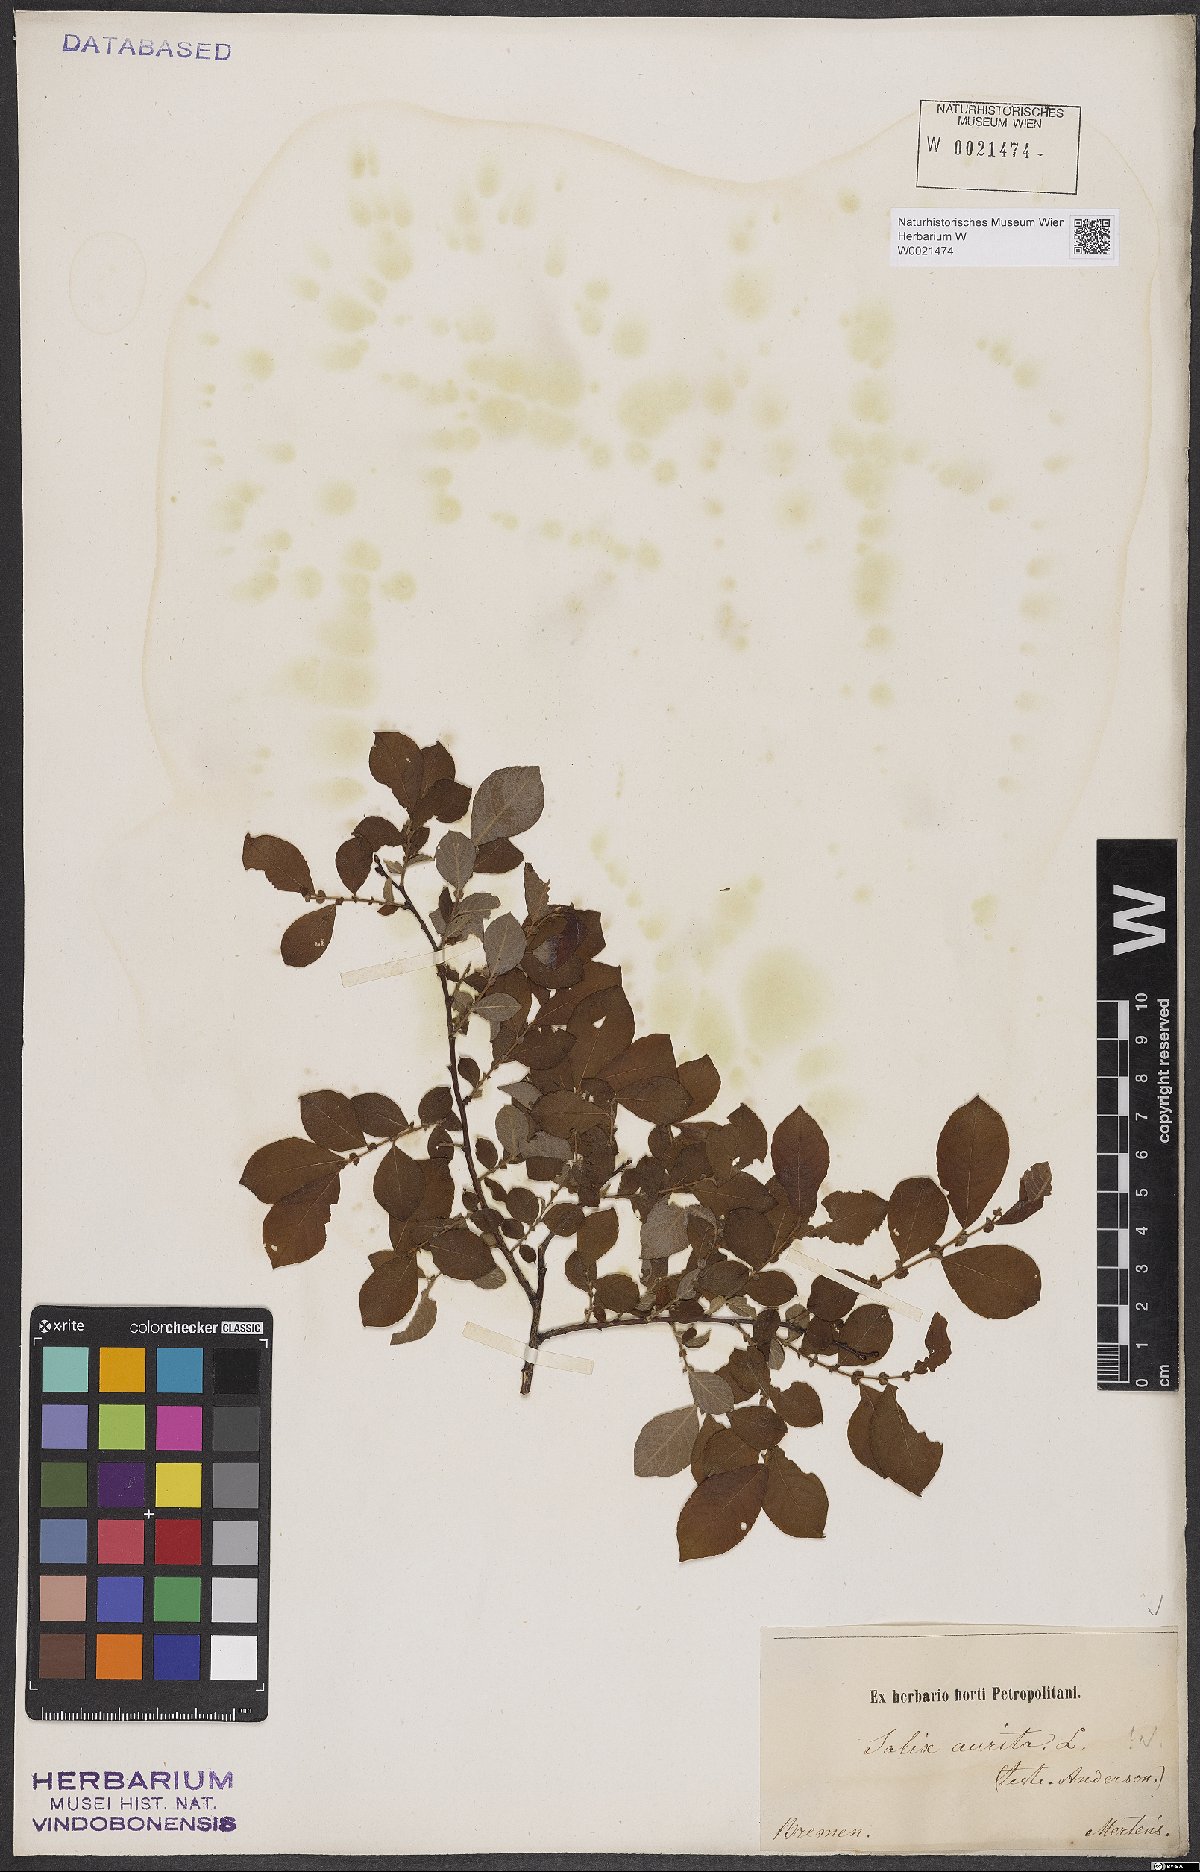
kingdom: Plantae
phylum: Tracheophyta
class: Magnoliopsida
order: Malpighiales
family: Salicaceae
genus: Salix
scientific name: Salix aurita
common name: Eared willow
